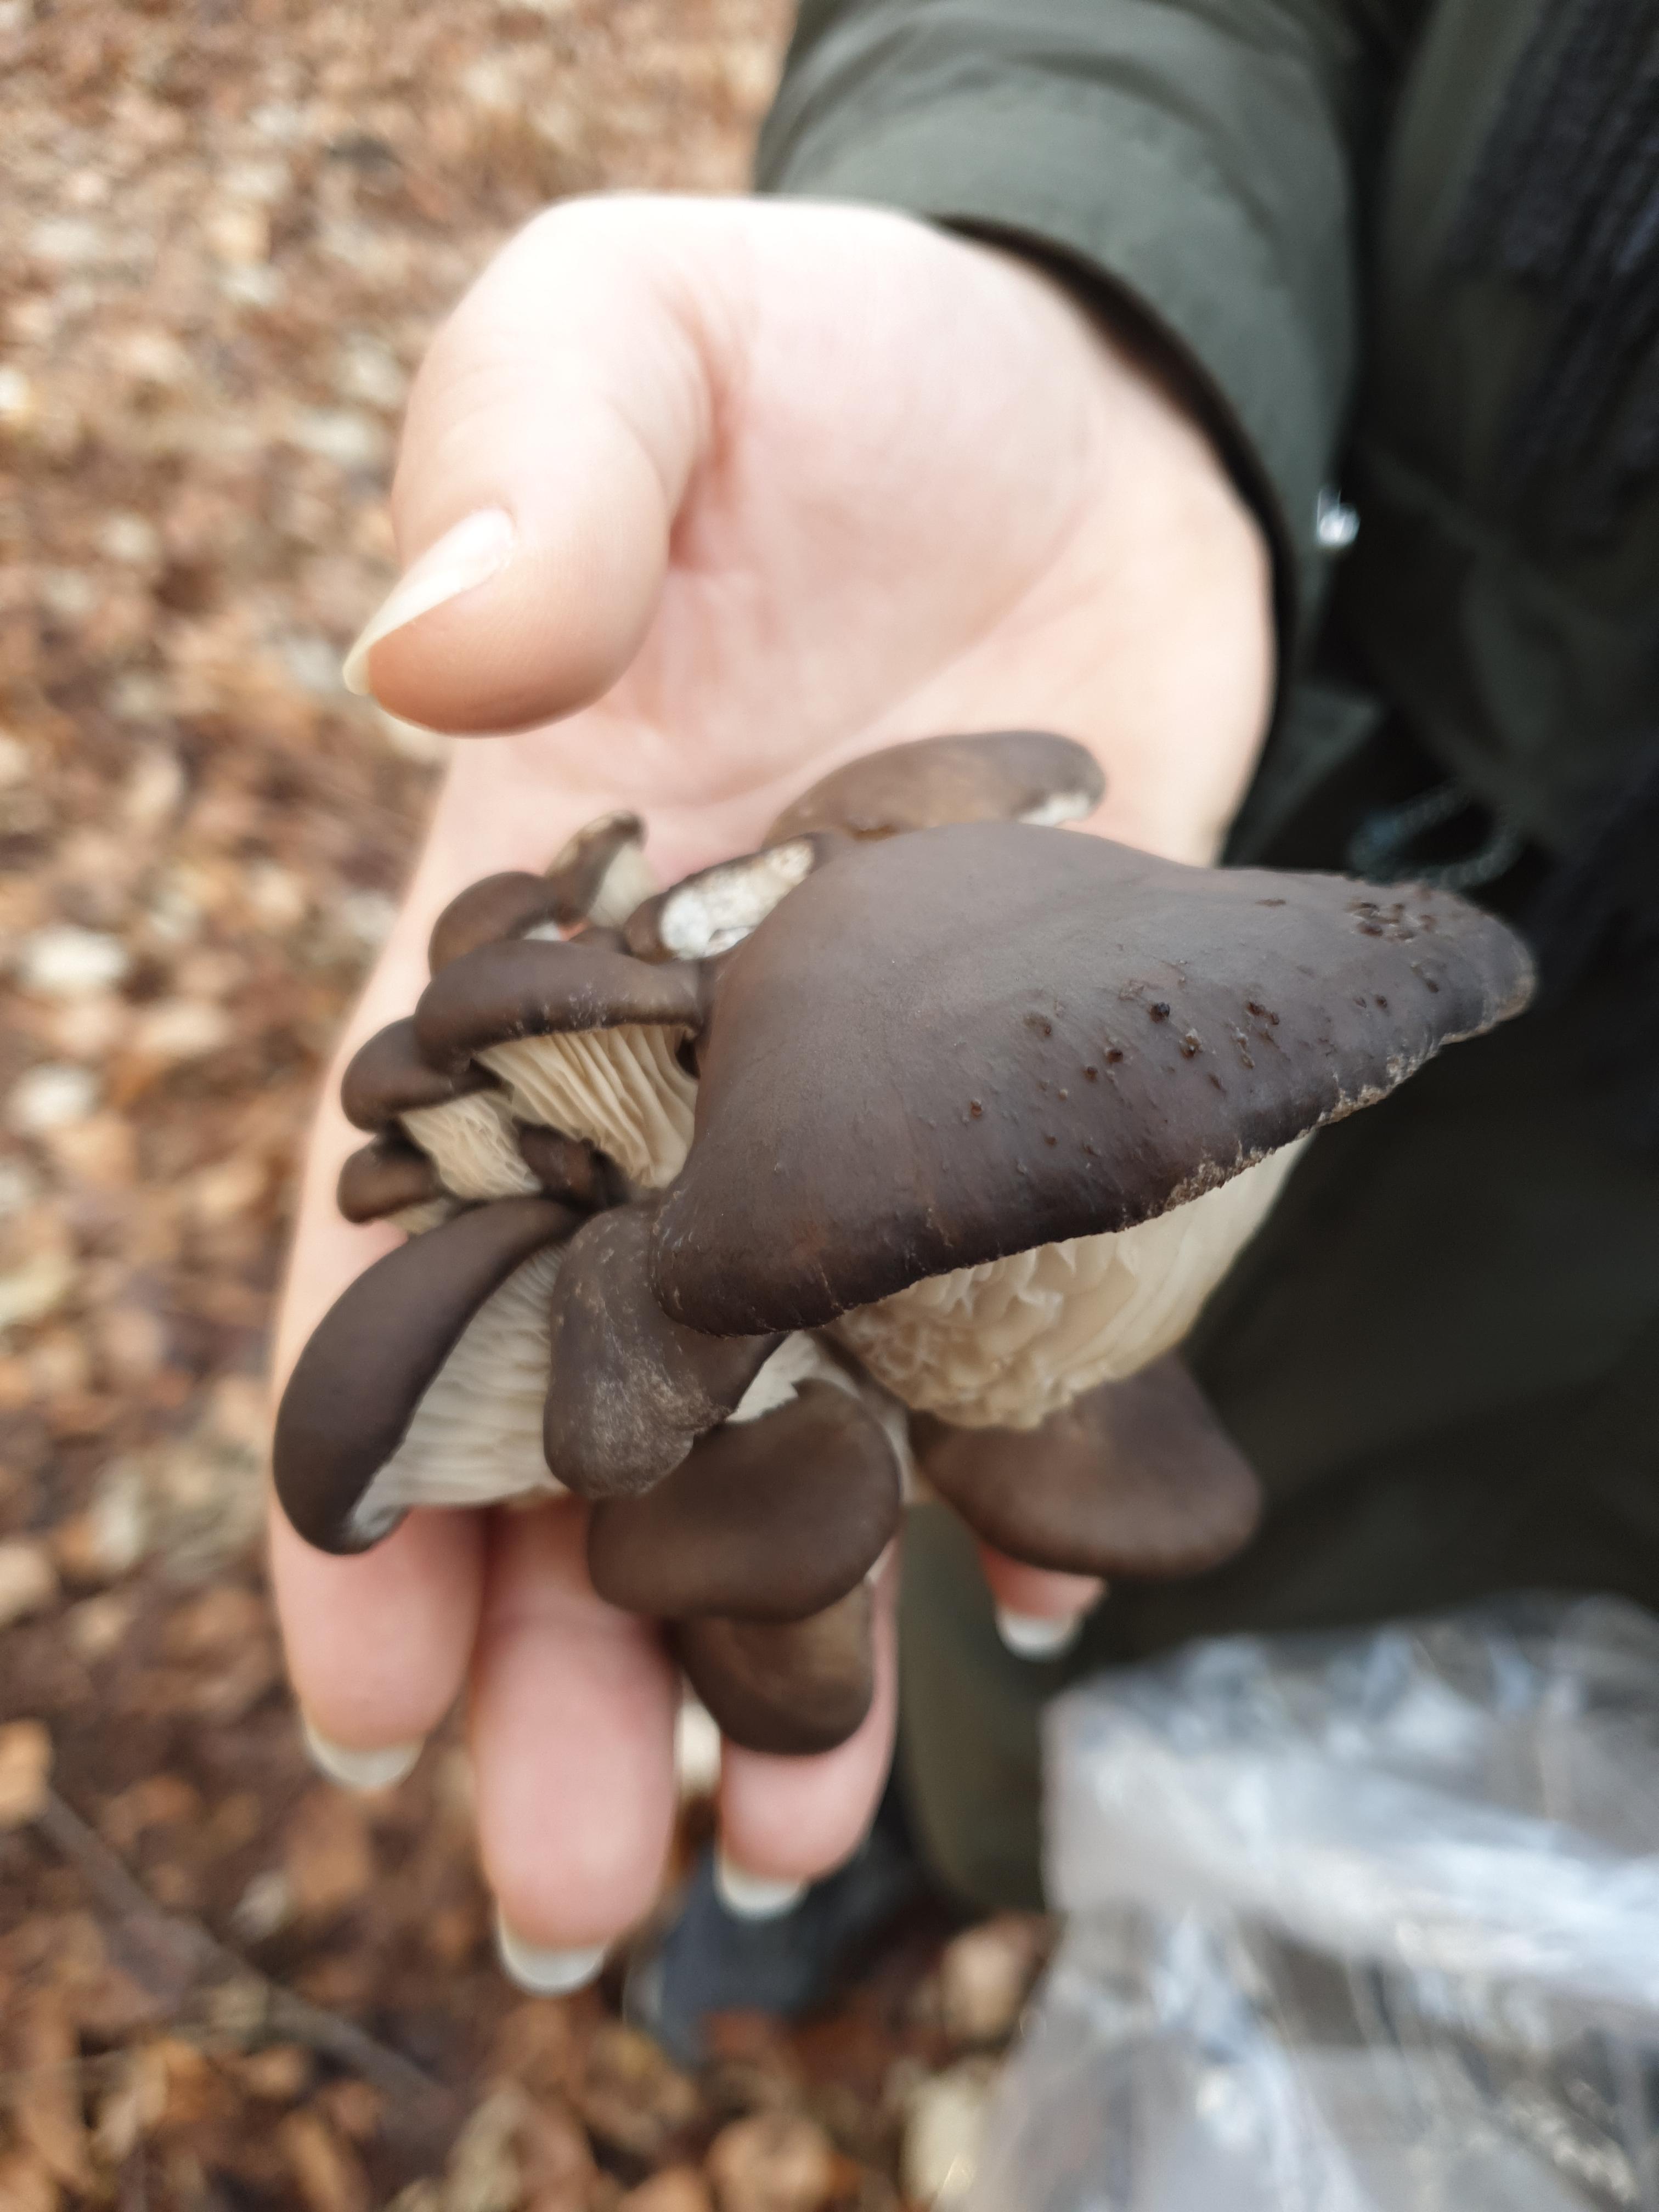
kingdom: Fungi
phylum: Basidiomycota
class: Agaricomycetes
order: Agaricales
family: Pleurotaceae
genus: Pleurotus
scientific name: Pleurotus ostreatus
